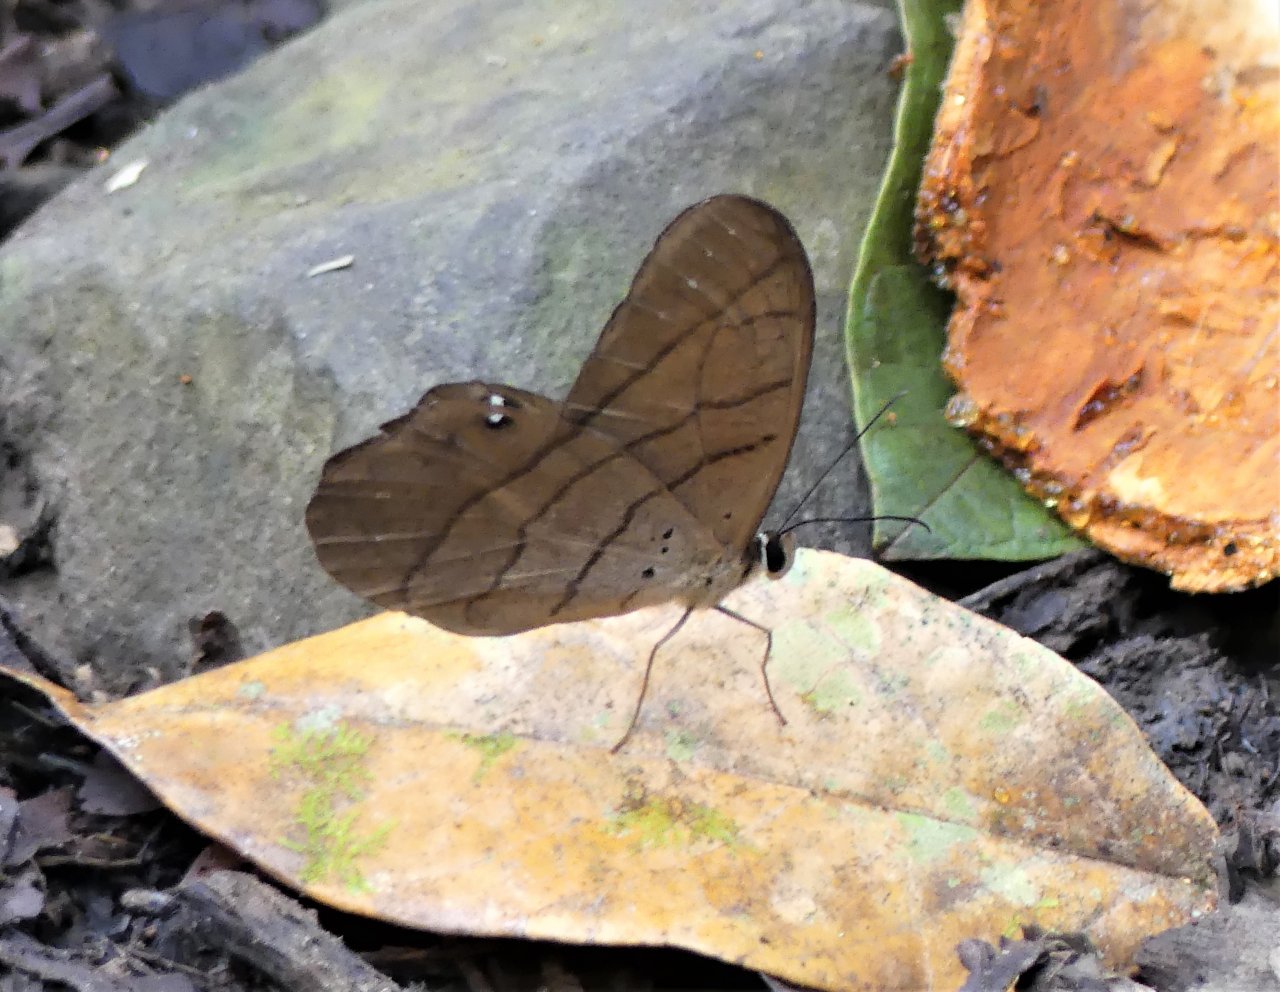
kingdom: Animalia
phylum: Arthropoda
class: Insecta
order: Lepidoptera
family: Nymphalidae
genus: Pierella
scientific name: Pierella luna
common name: Moon Satyr
